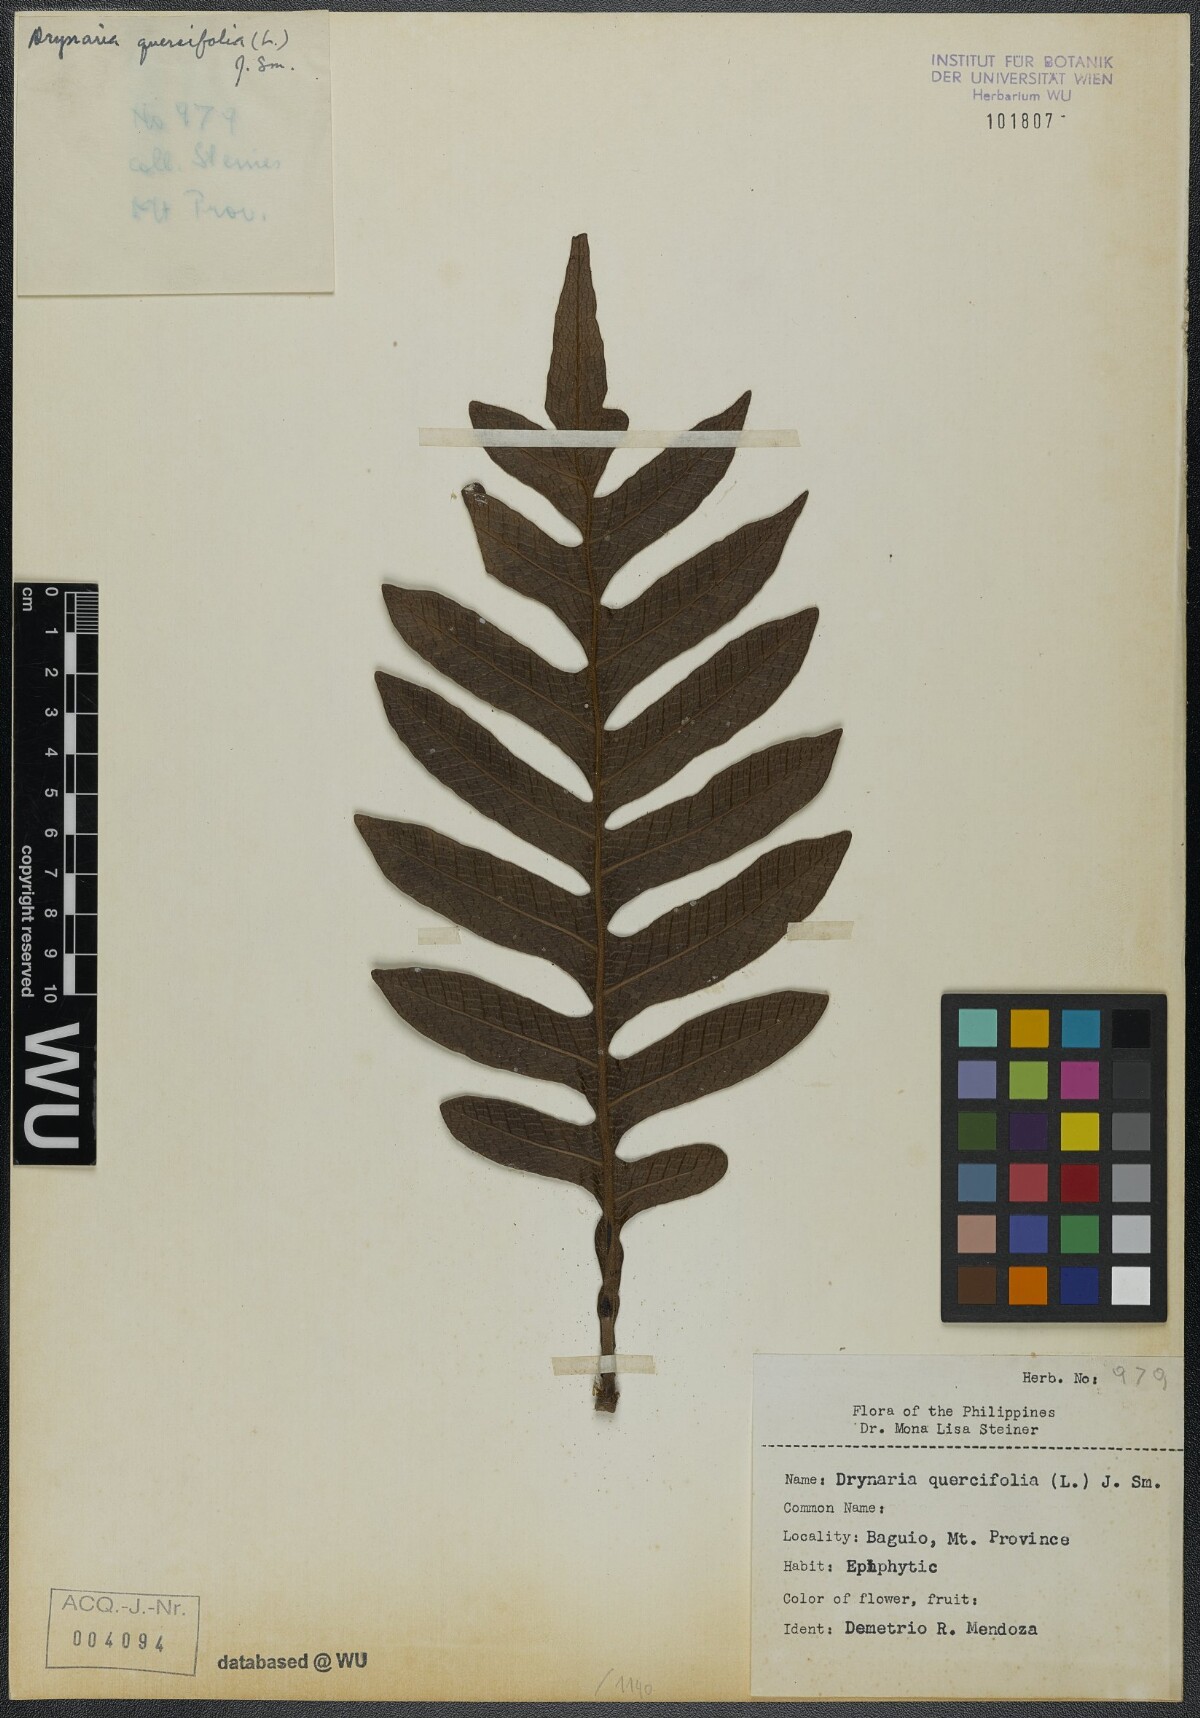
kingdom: Plantae
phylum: Tracheophyta
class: Polypodiopsida
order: Polypodiales
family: Polypodiaceae
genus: Drynaria
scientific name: Drynaria quercifolia
